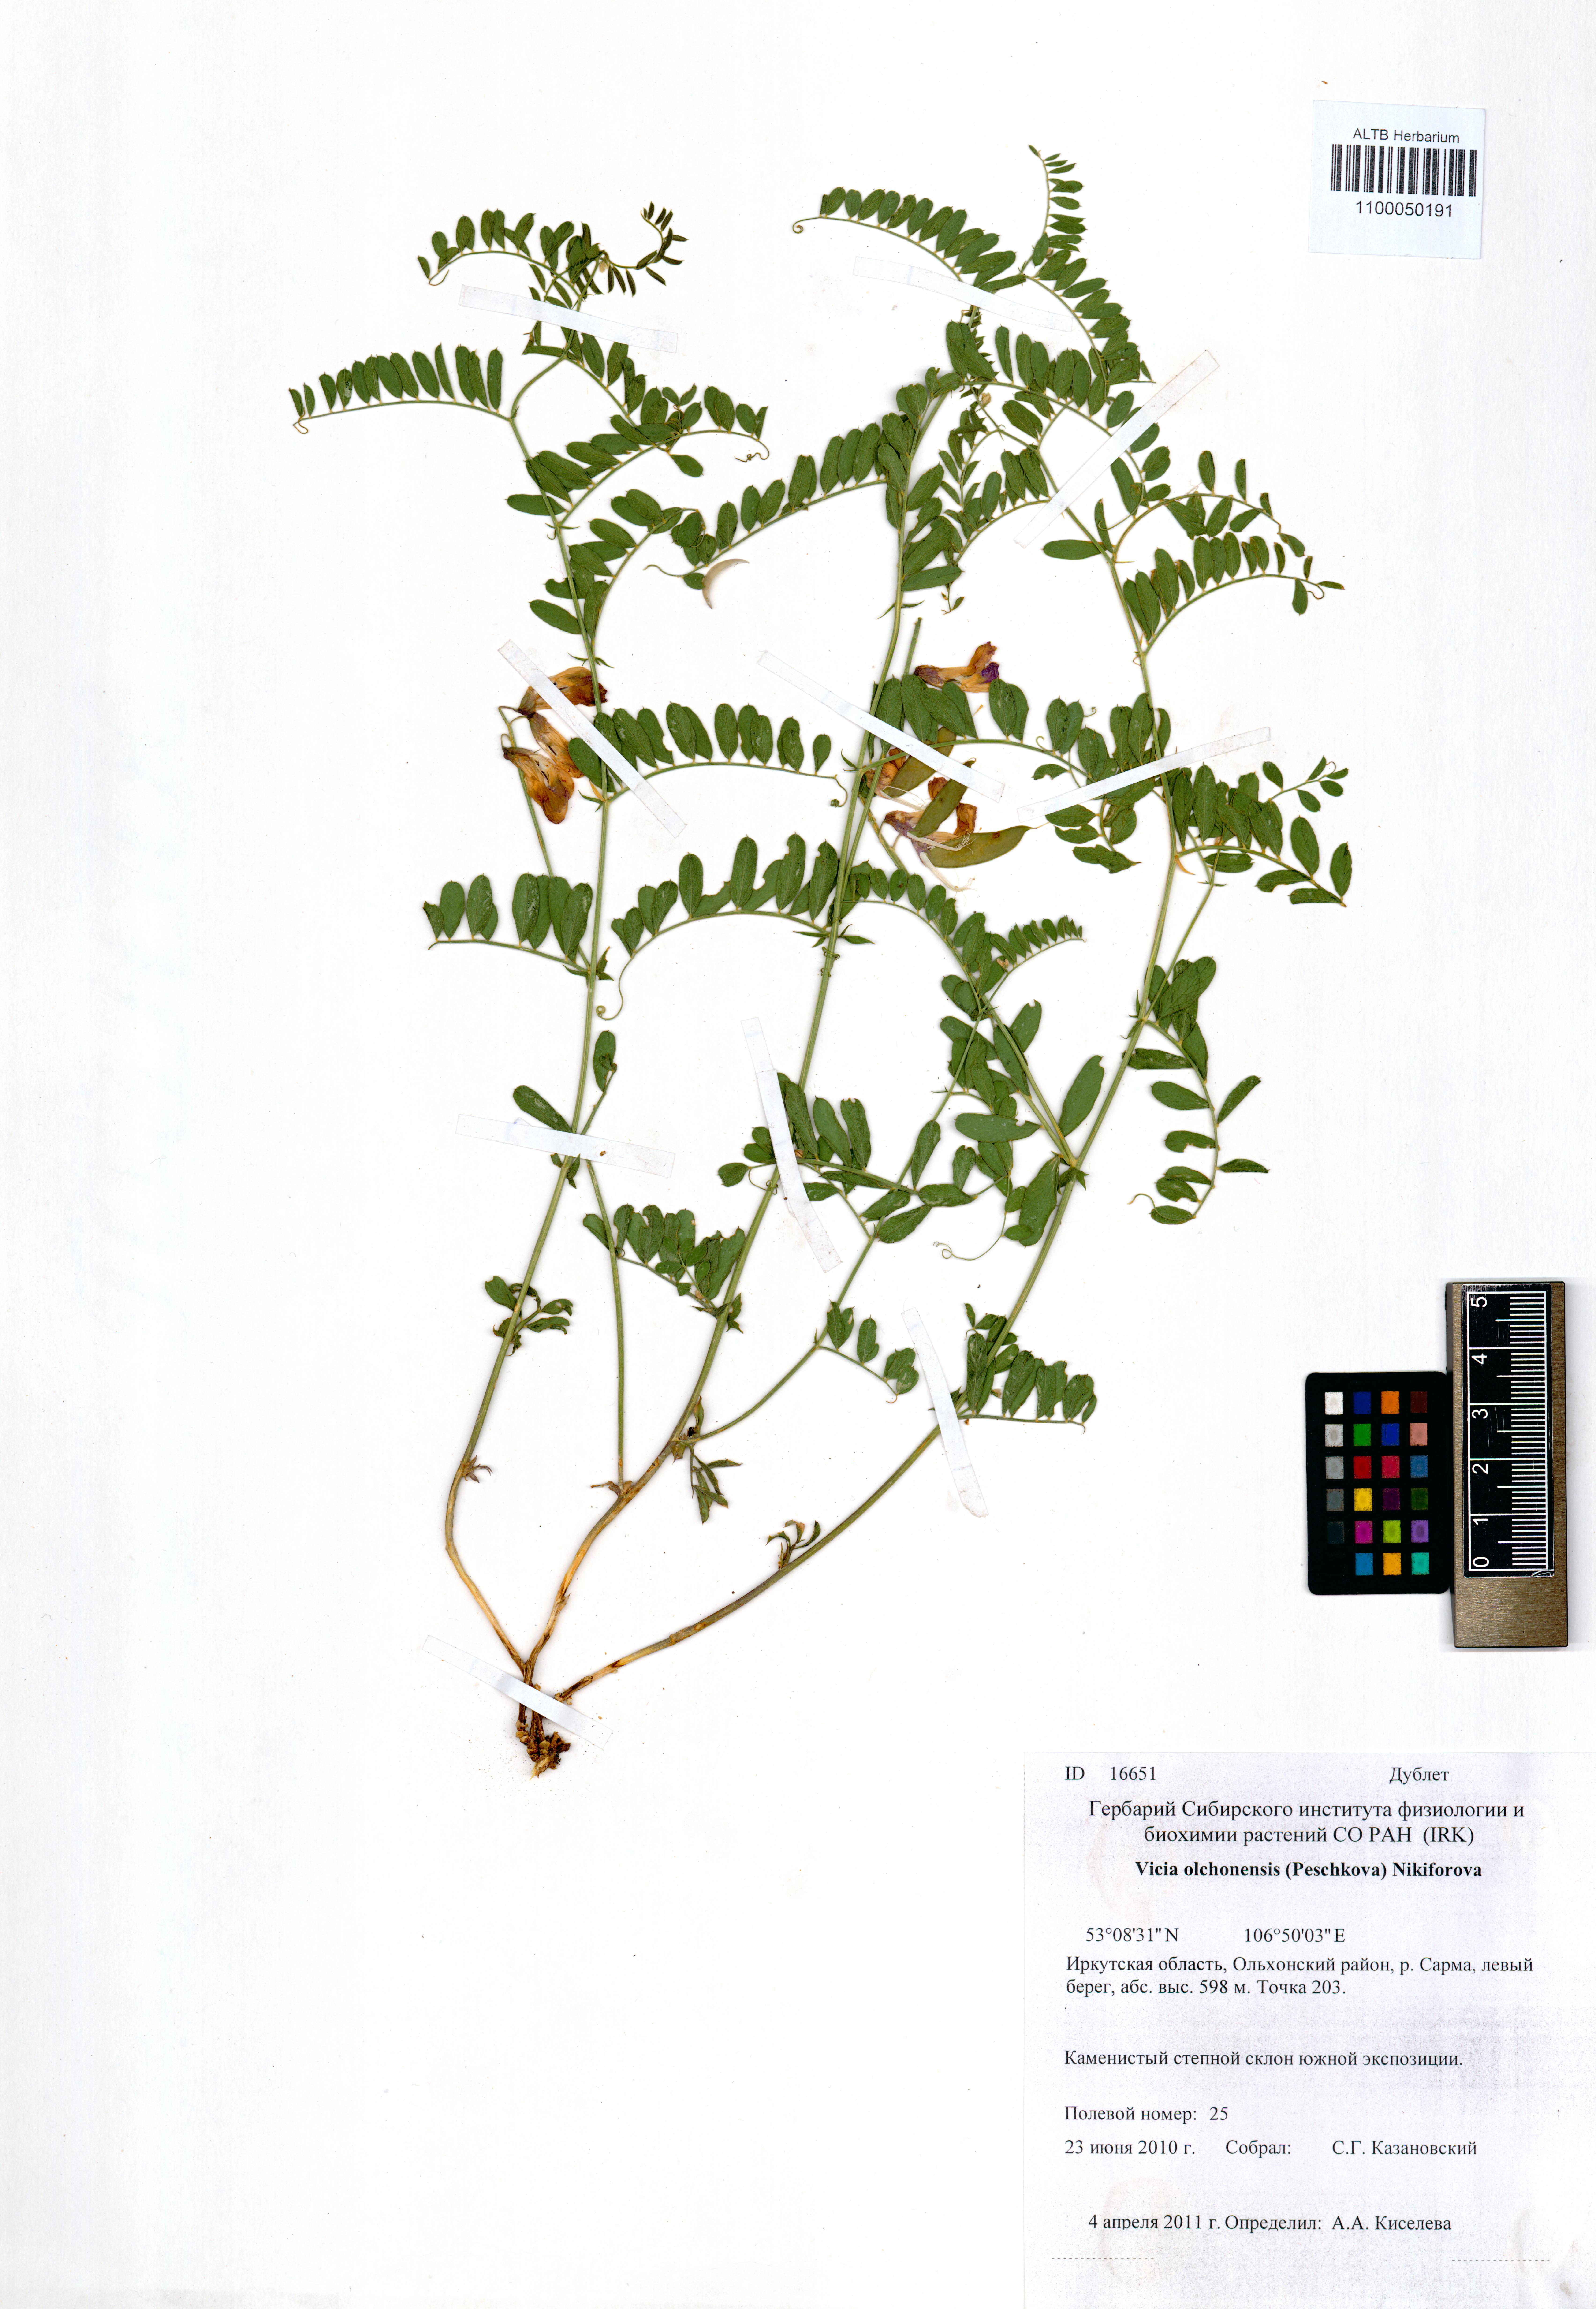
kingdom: Plantae
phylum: Tracheophyta
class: Magnoliopsida
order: Fabales
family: Fabaceae
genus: Vicia
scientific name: Vicia olchonensis
